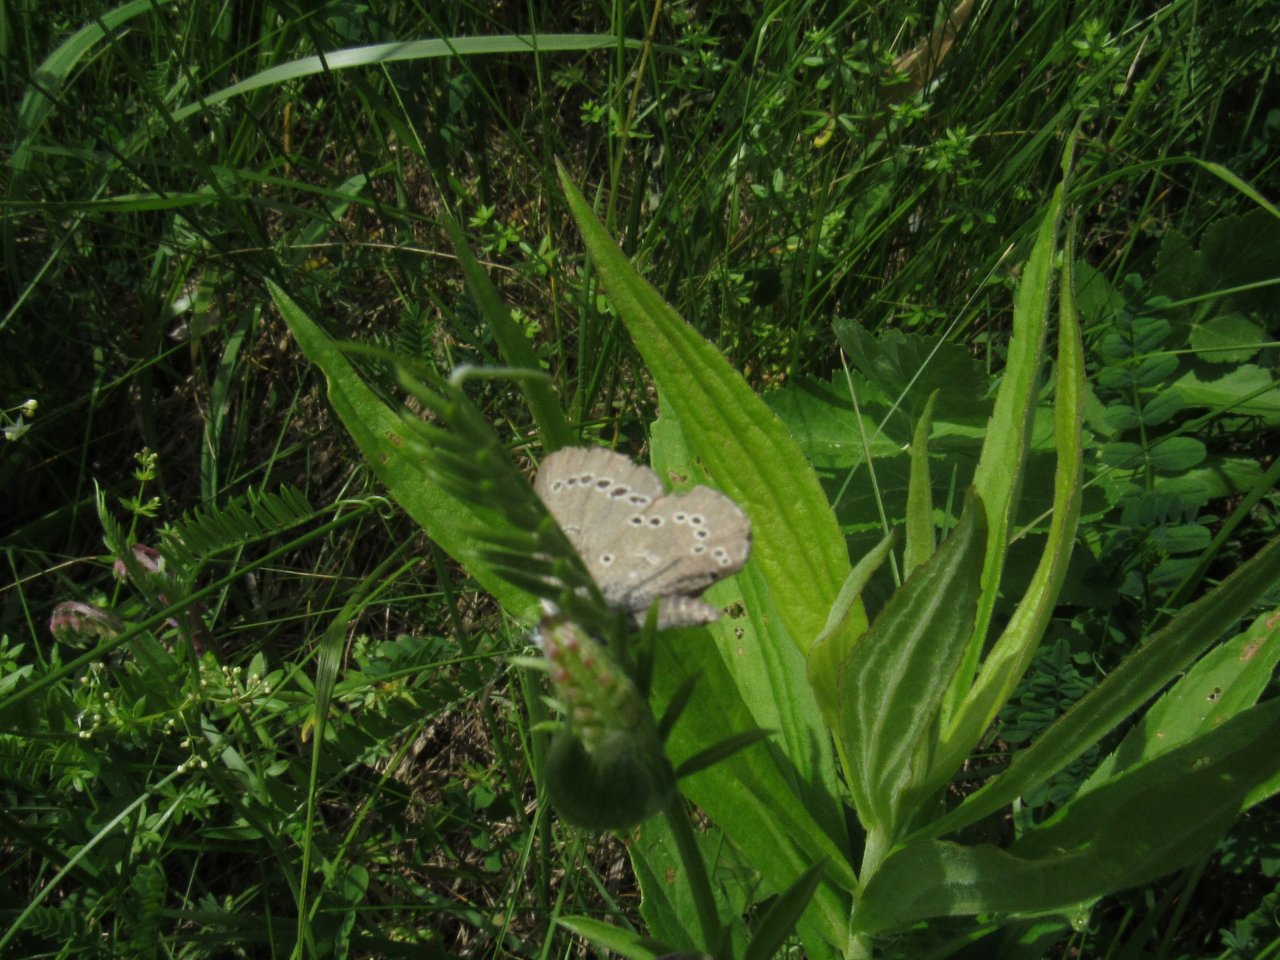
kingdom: Animalia
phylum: Arthropoda
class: Insecta
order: Lepidoptera
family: Lycaenidae
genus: Glaucopsyche
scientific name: Glaucopsyche lygdamus
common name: Silvery Blue
